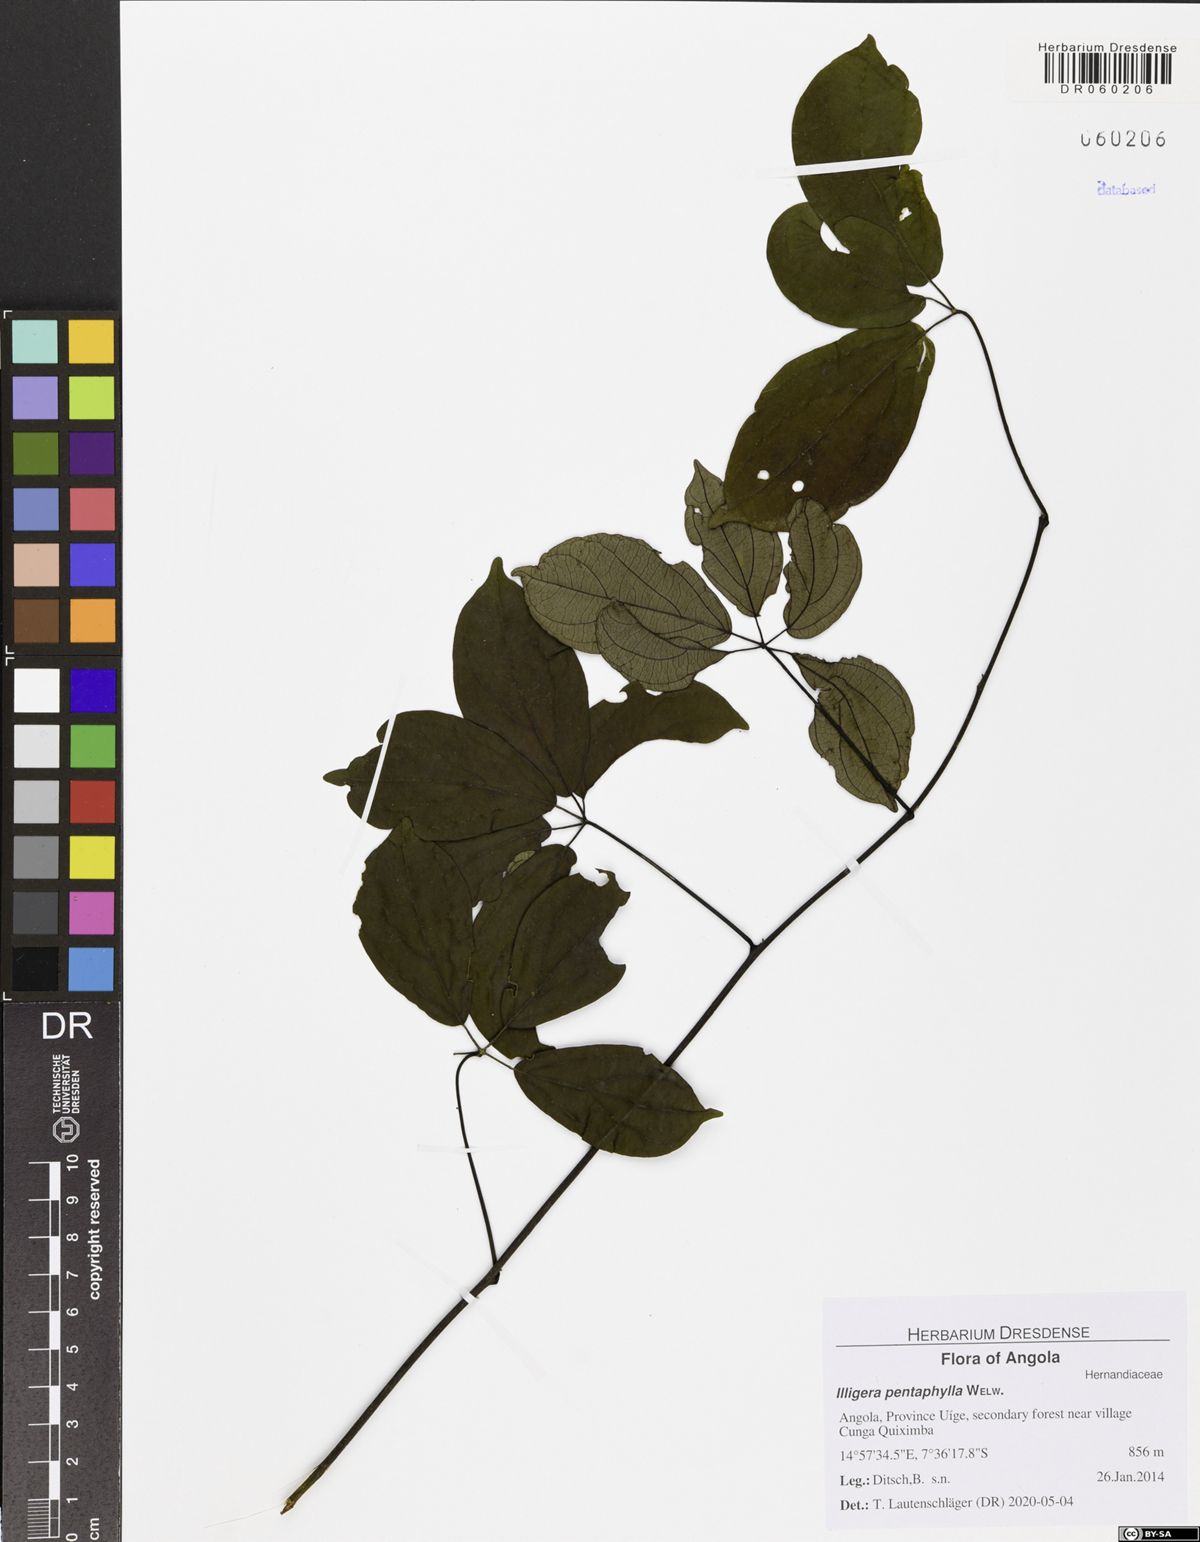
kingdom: Plantae
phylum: Tracheophyta
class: Magnoliopsida
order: Laurales
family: Hernandiaceae
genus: Illigera
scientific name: Illigera pentaphylla
